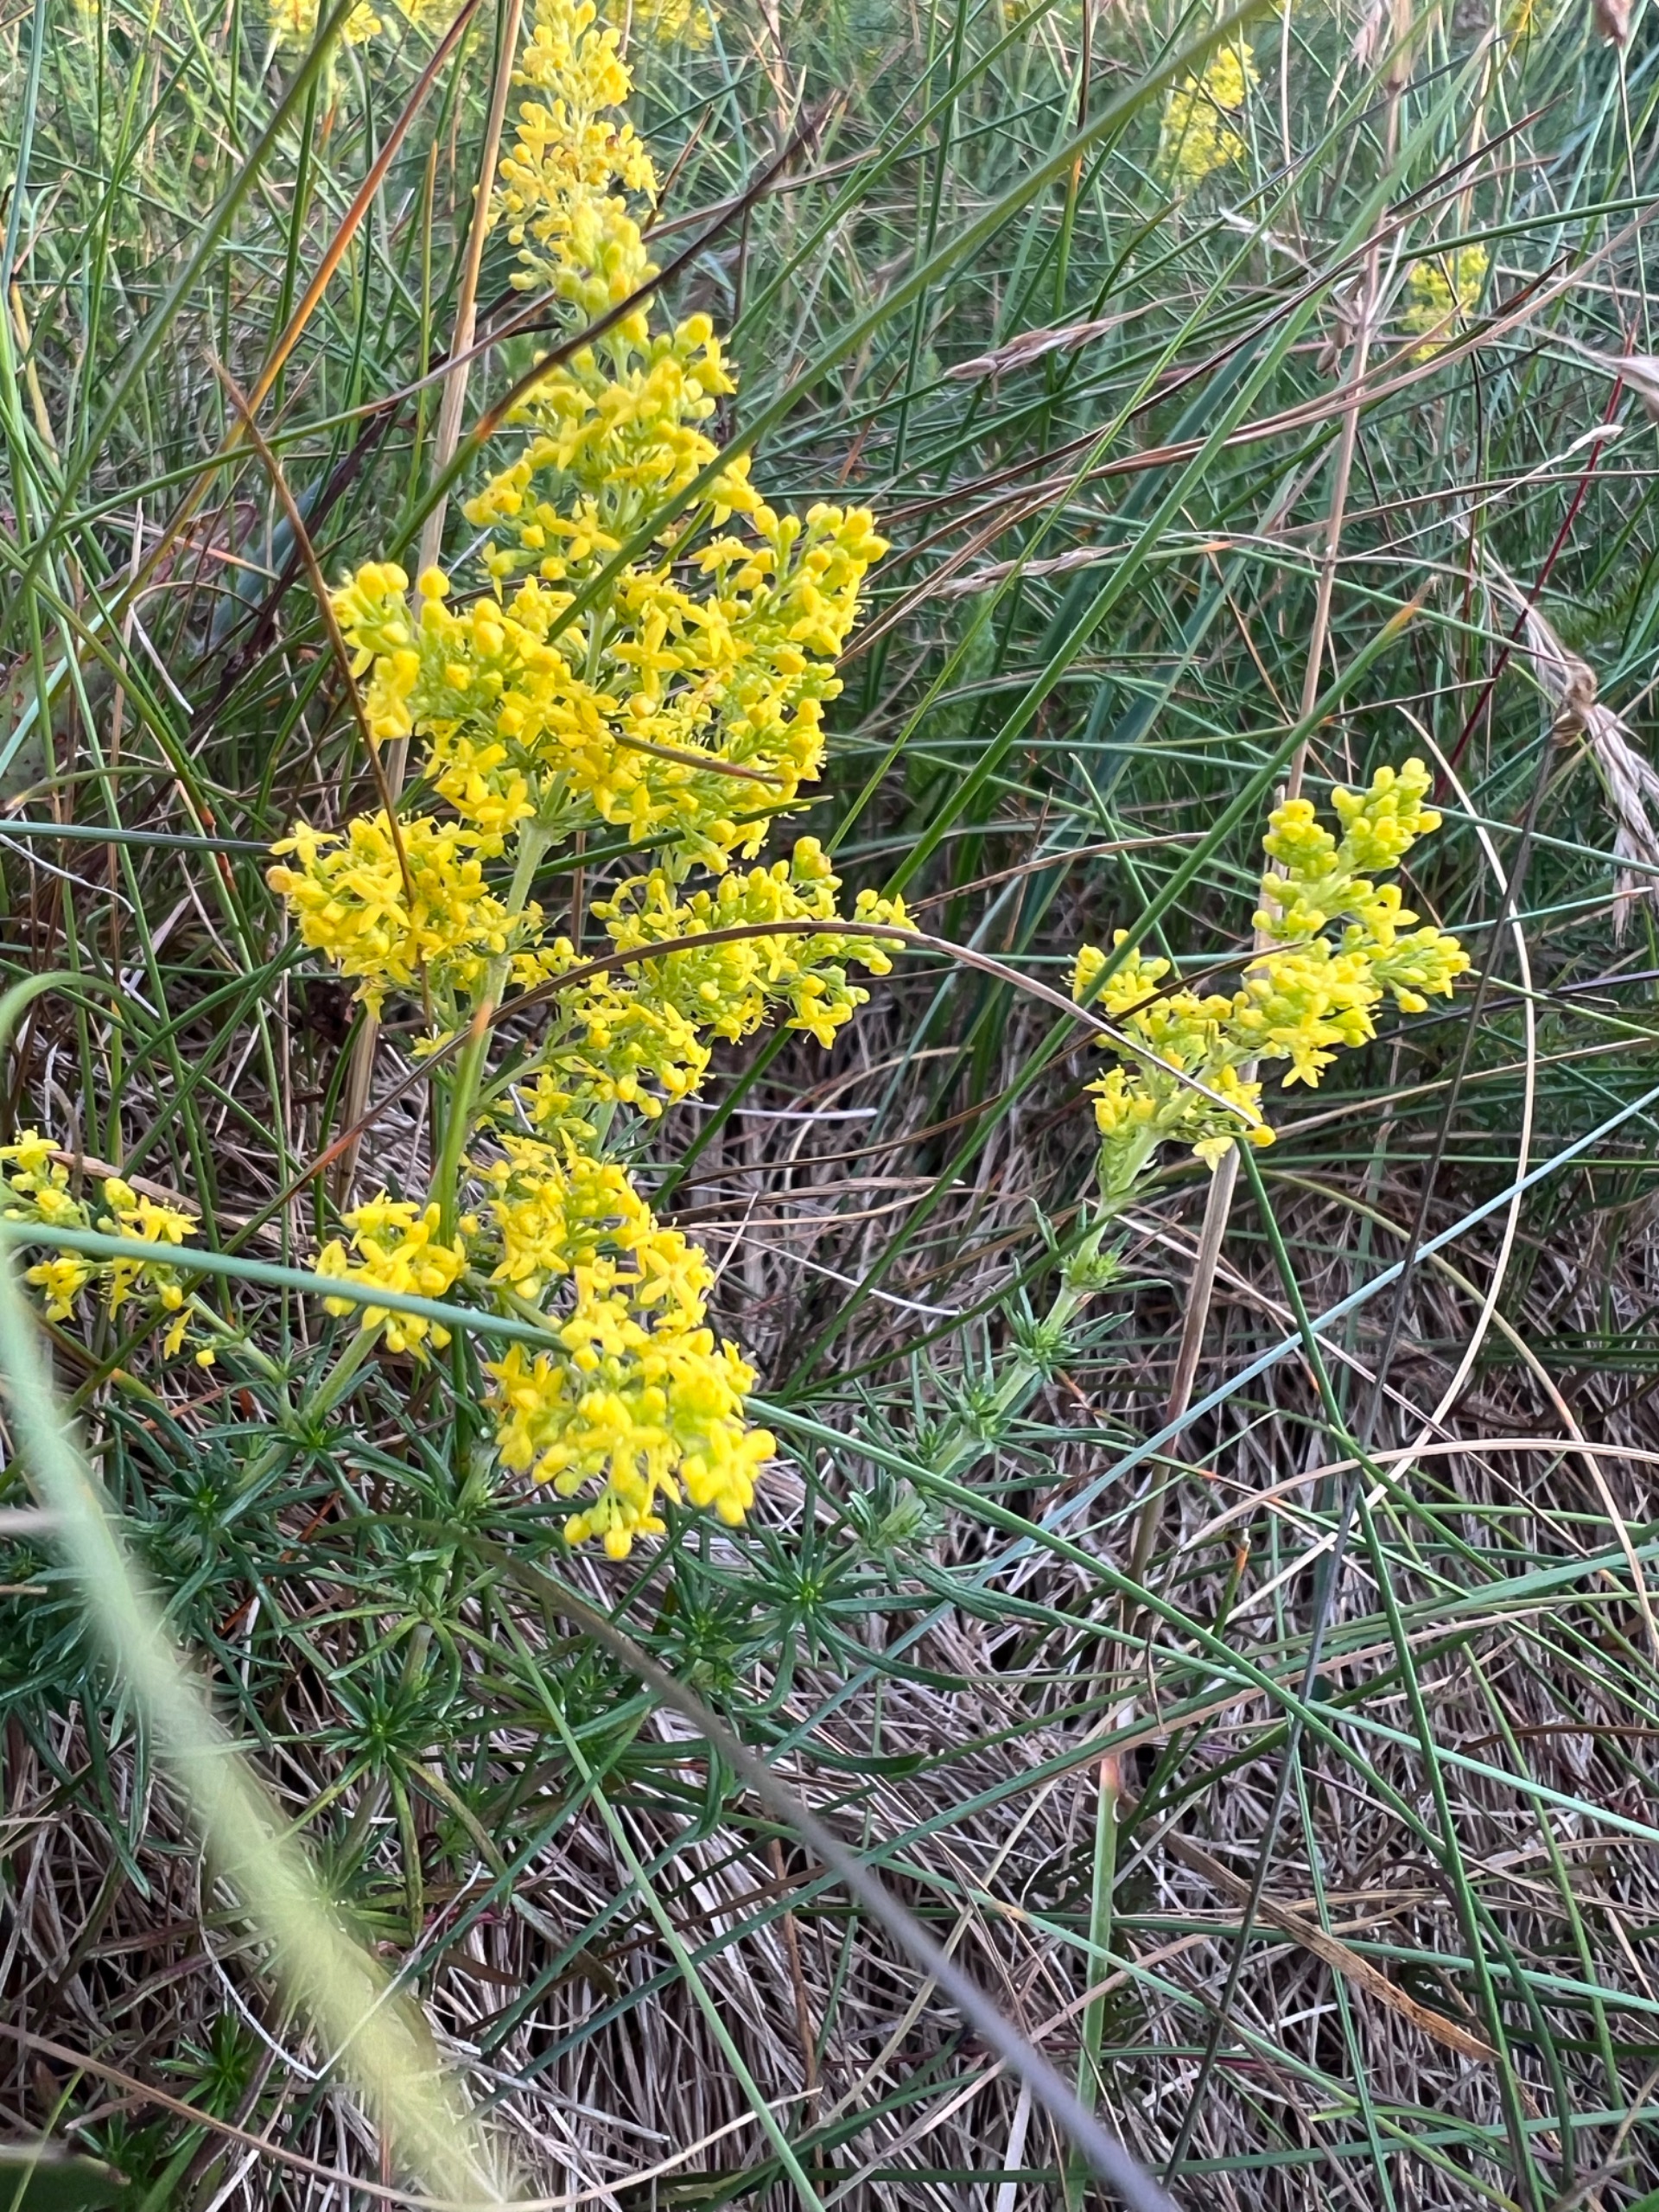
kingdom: Plantae
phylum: Tracheophyta
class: Magnoliopsida
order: Gentianales
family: Rubiaceae
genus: Galium
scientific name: Galium verum
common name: Gul snerre
